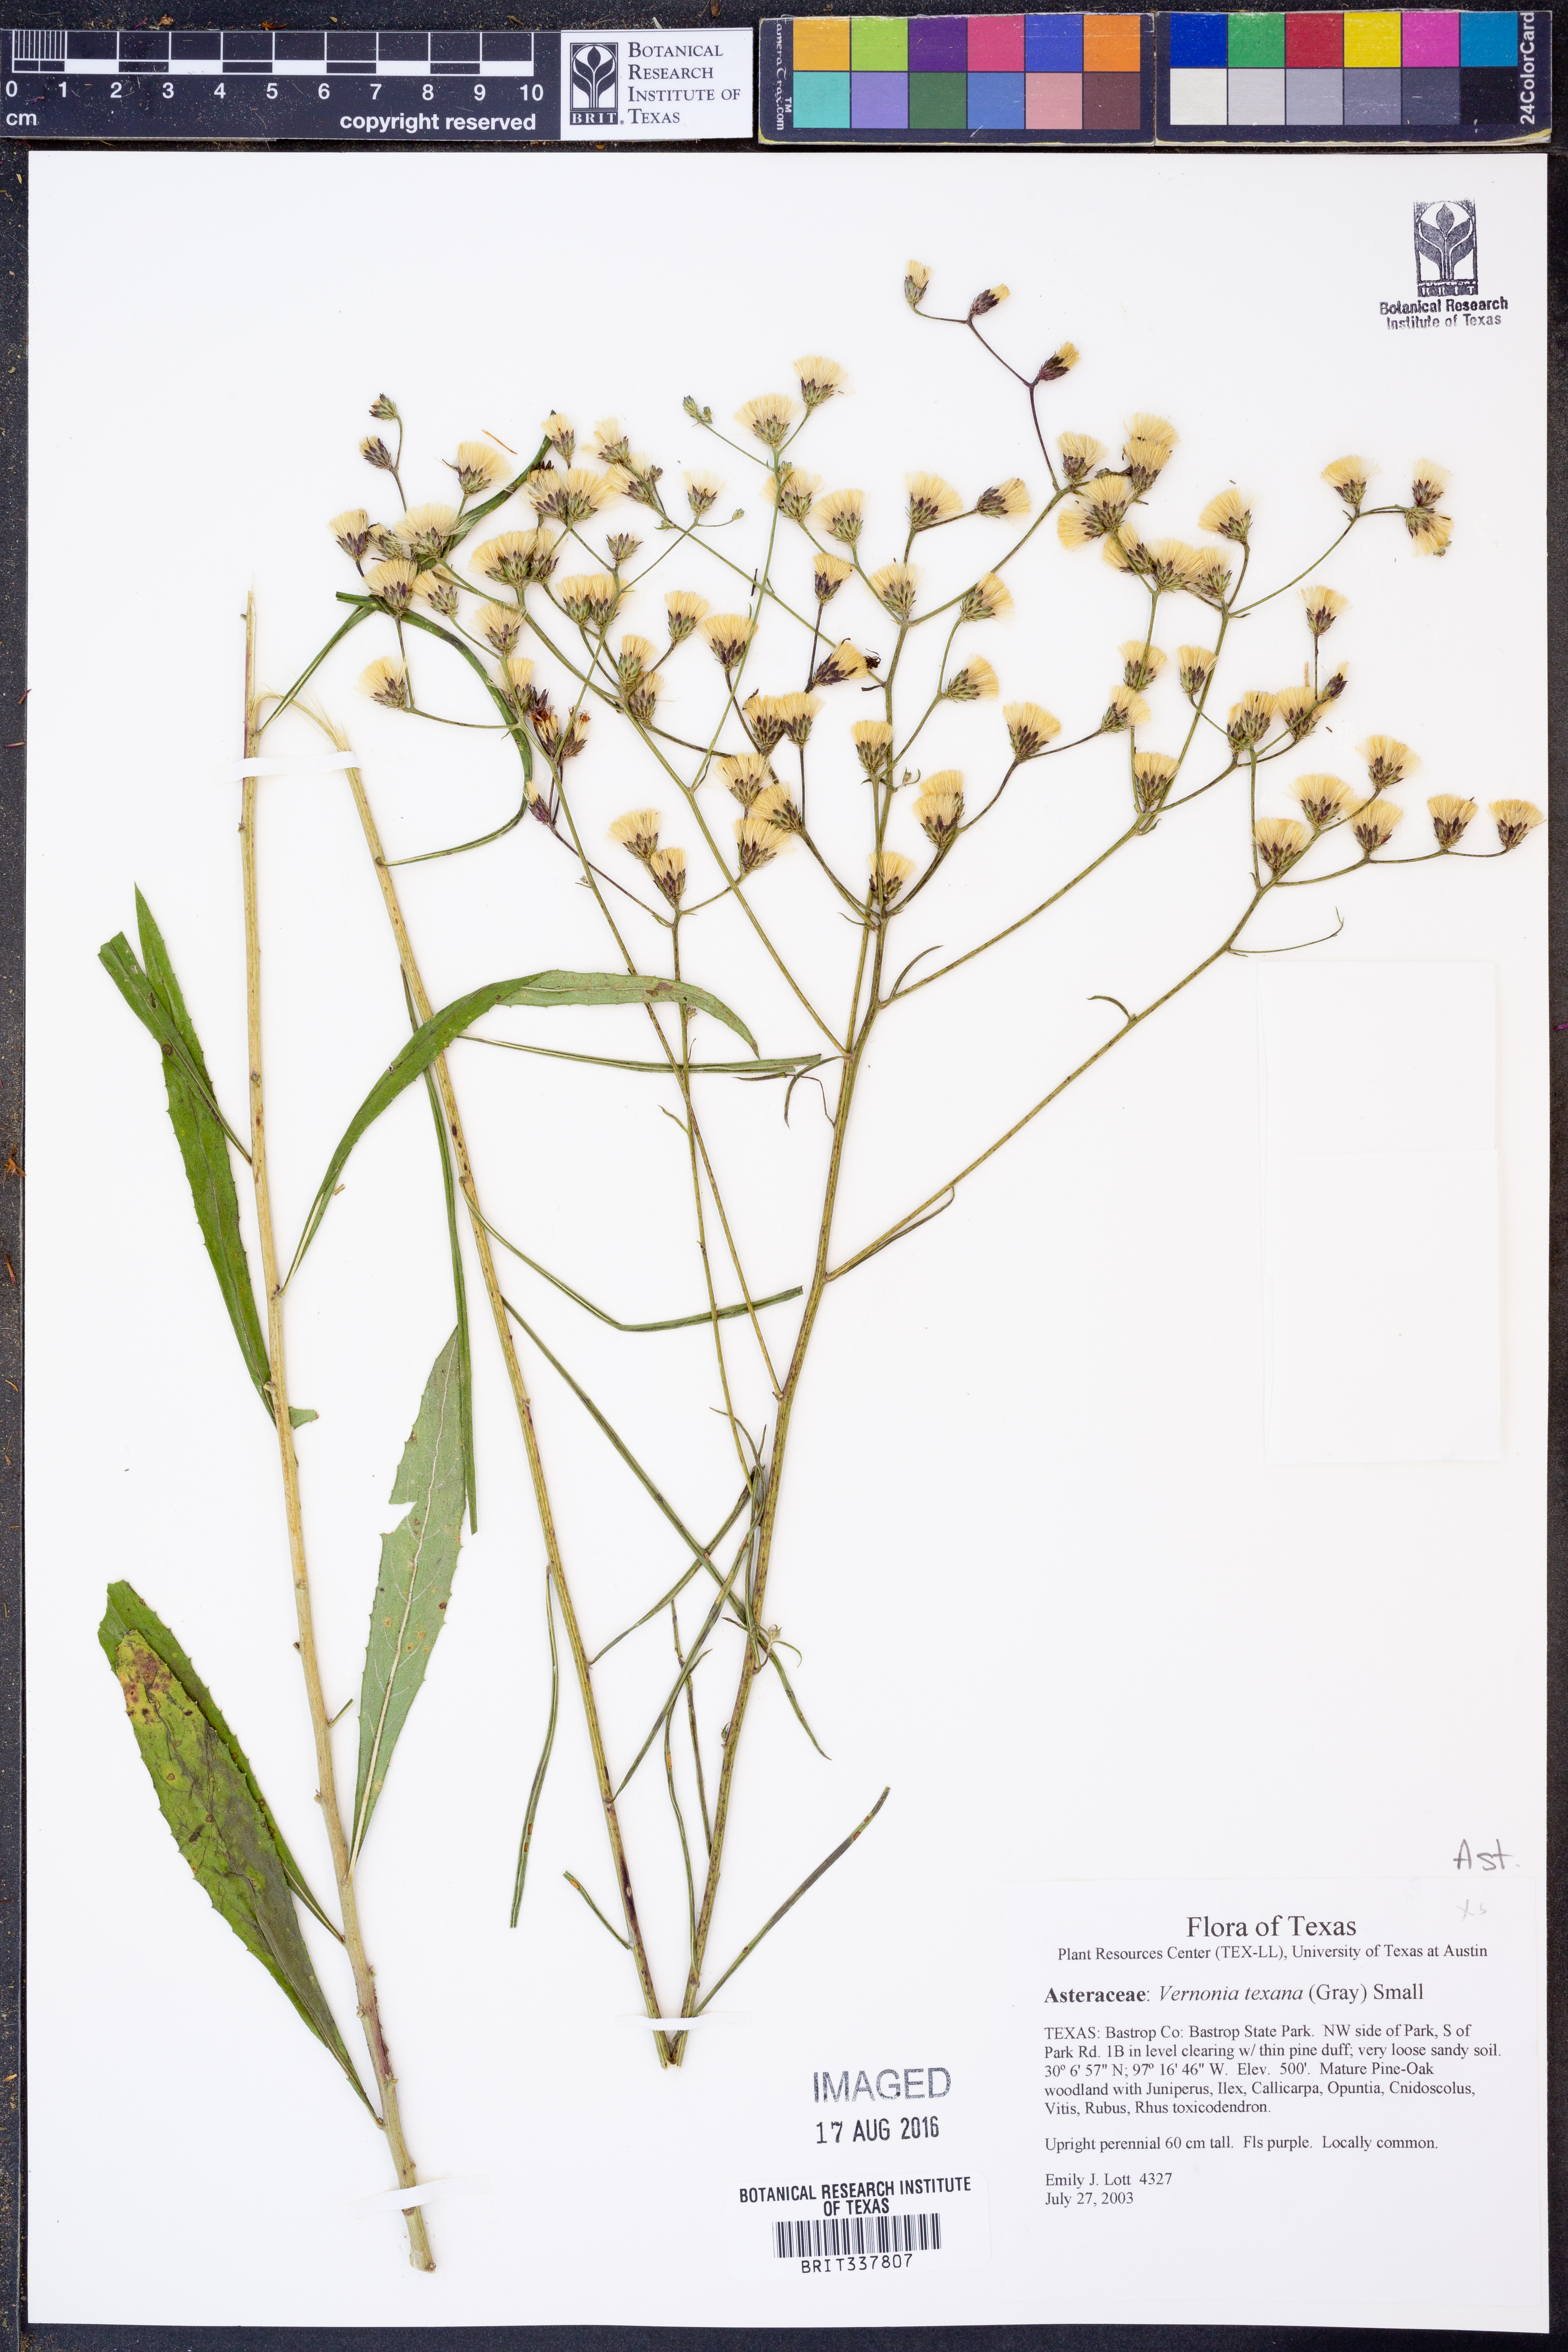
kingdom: Plantae
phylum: Tracheophyta
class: Magnoliopsida
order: Asterales
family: Asteraceae
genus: Vernonia
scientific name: Vernonia texana
